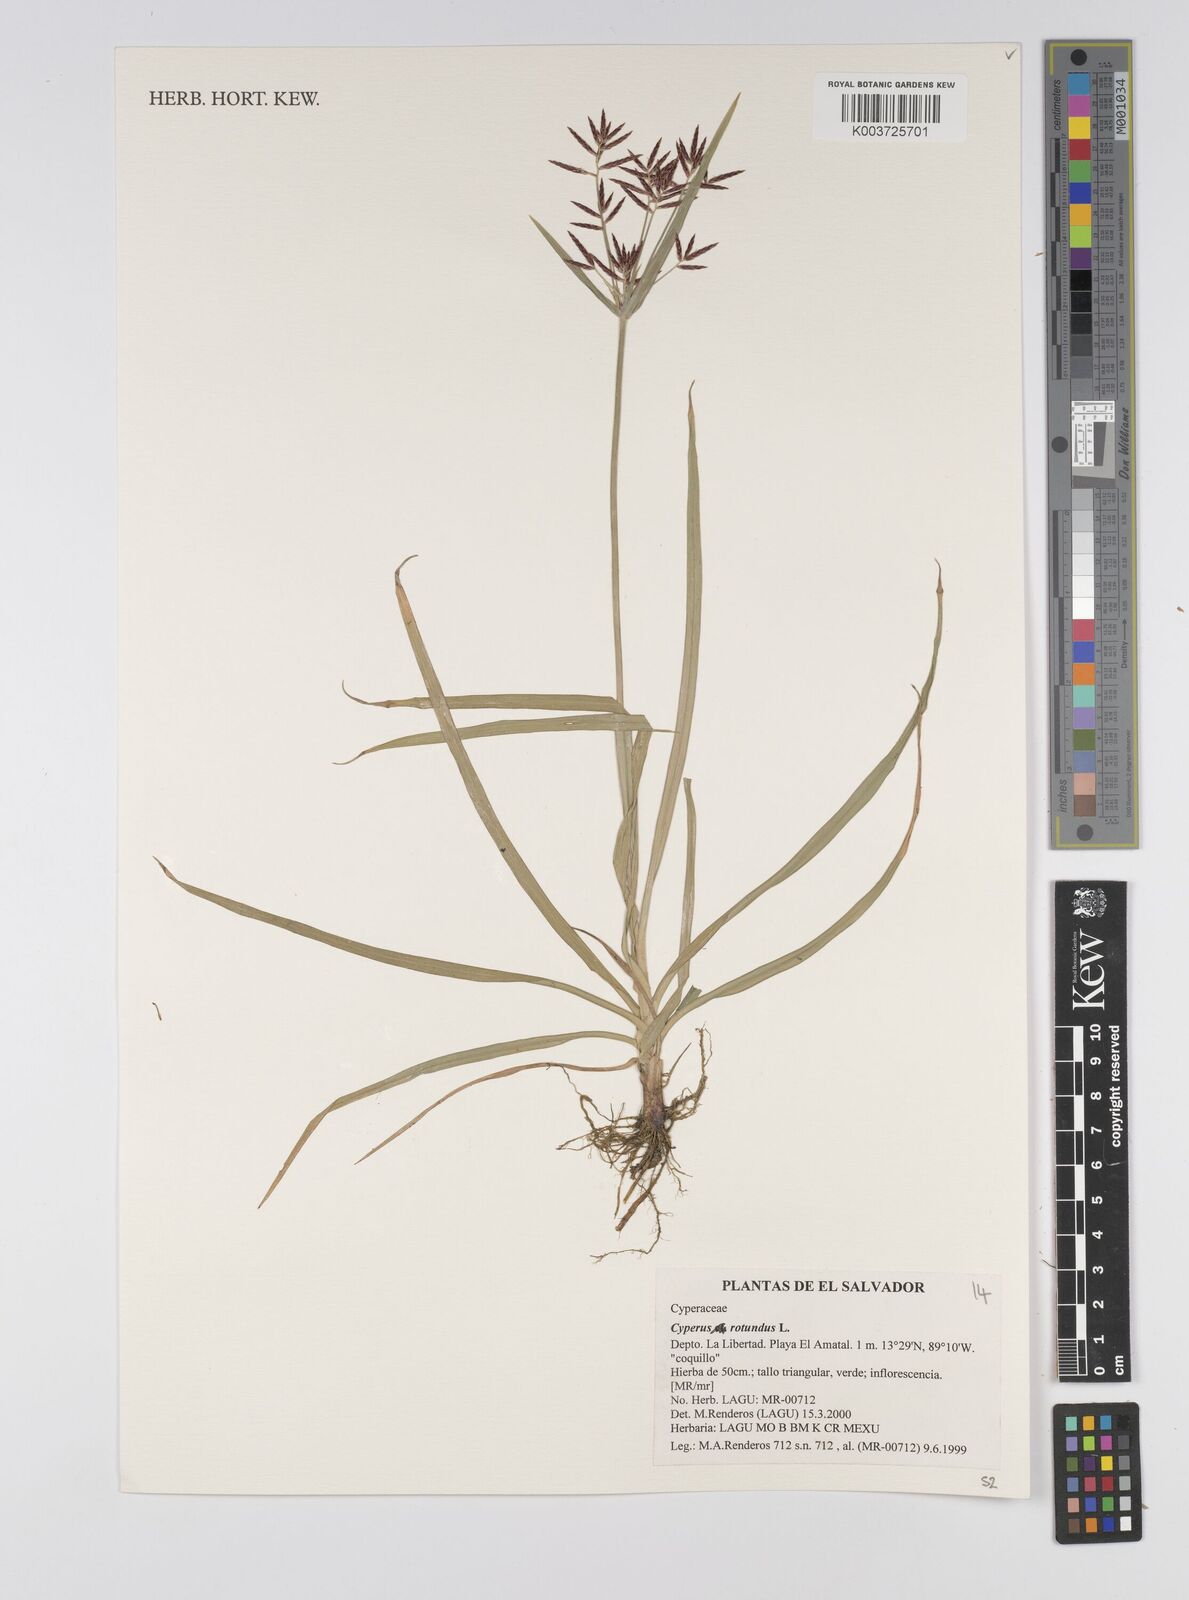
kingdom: Plantae
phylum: Tracheophyta
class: Liliopsida
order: Poales
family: Cyperaceae
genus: Cyperus
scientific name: Cyperus rotundus
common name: Nutgrass
